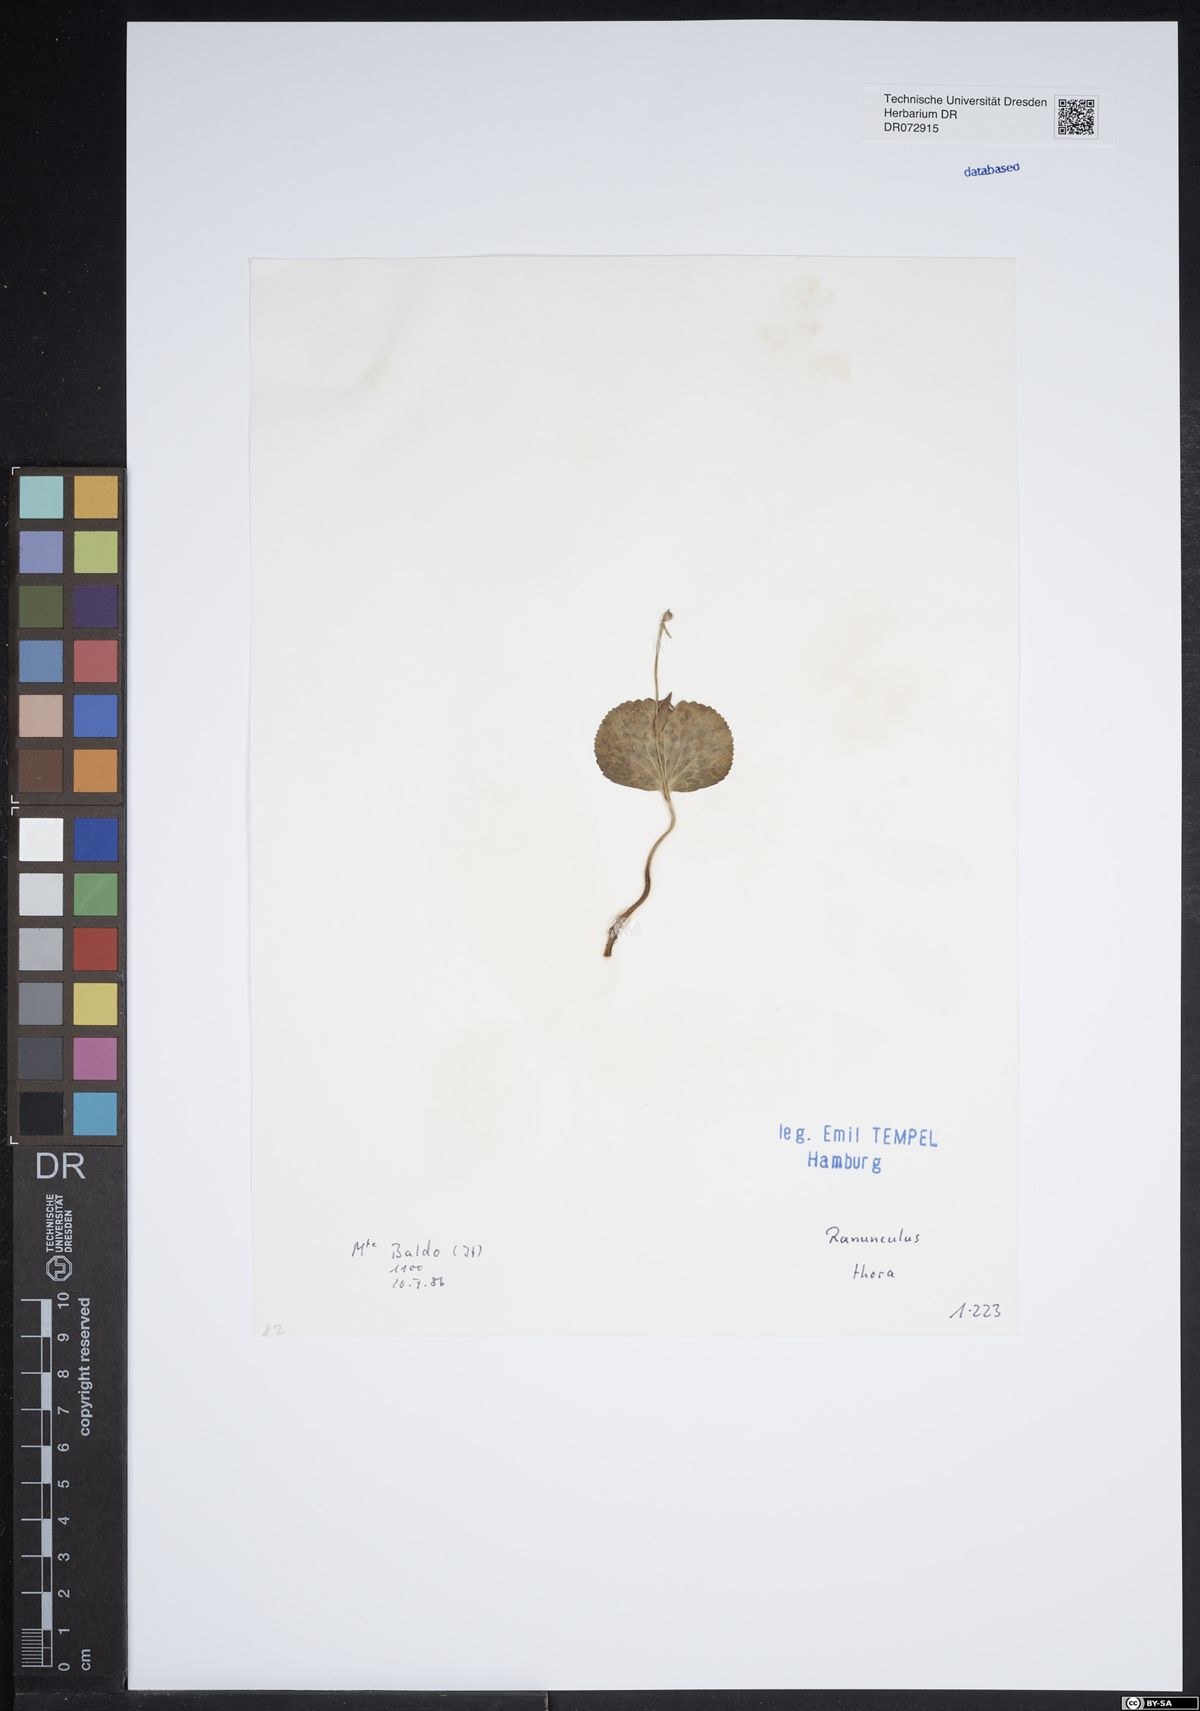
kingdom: Plantae
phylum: Tracheophyta
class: Magnoliopsida
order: Ranunculales
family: Ranunculaceae
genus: Ranunculus
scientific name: Ranunculus thora
